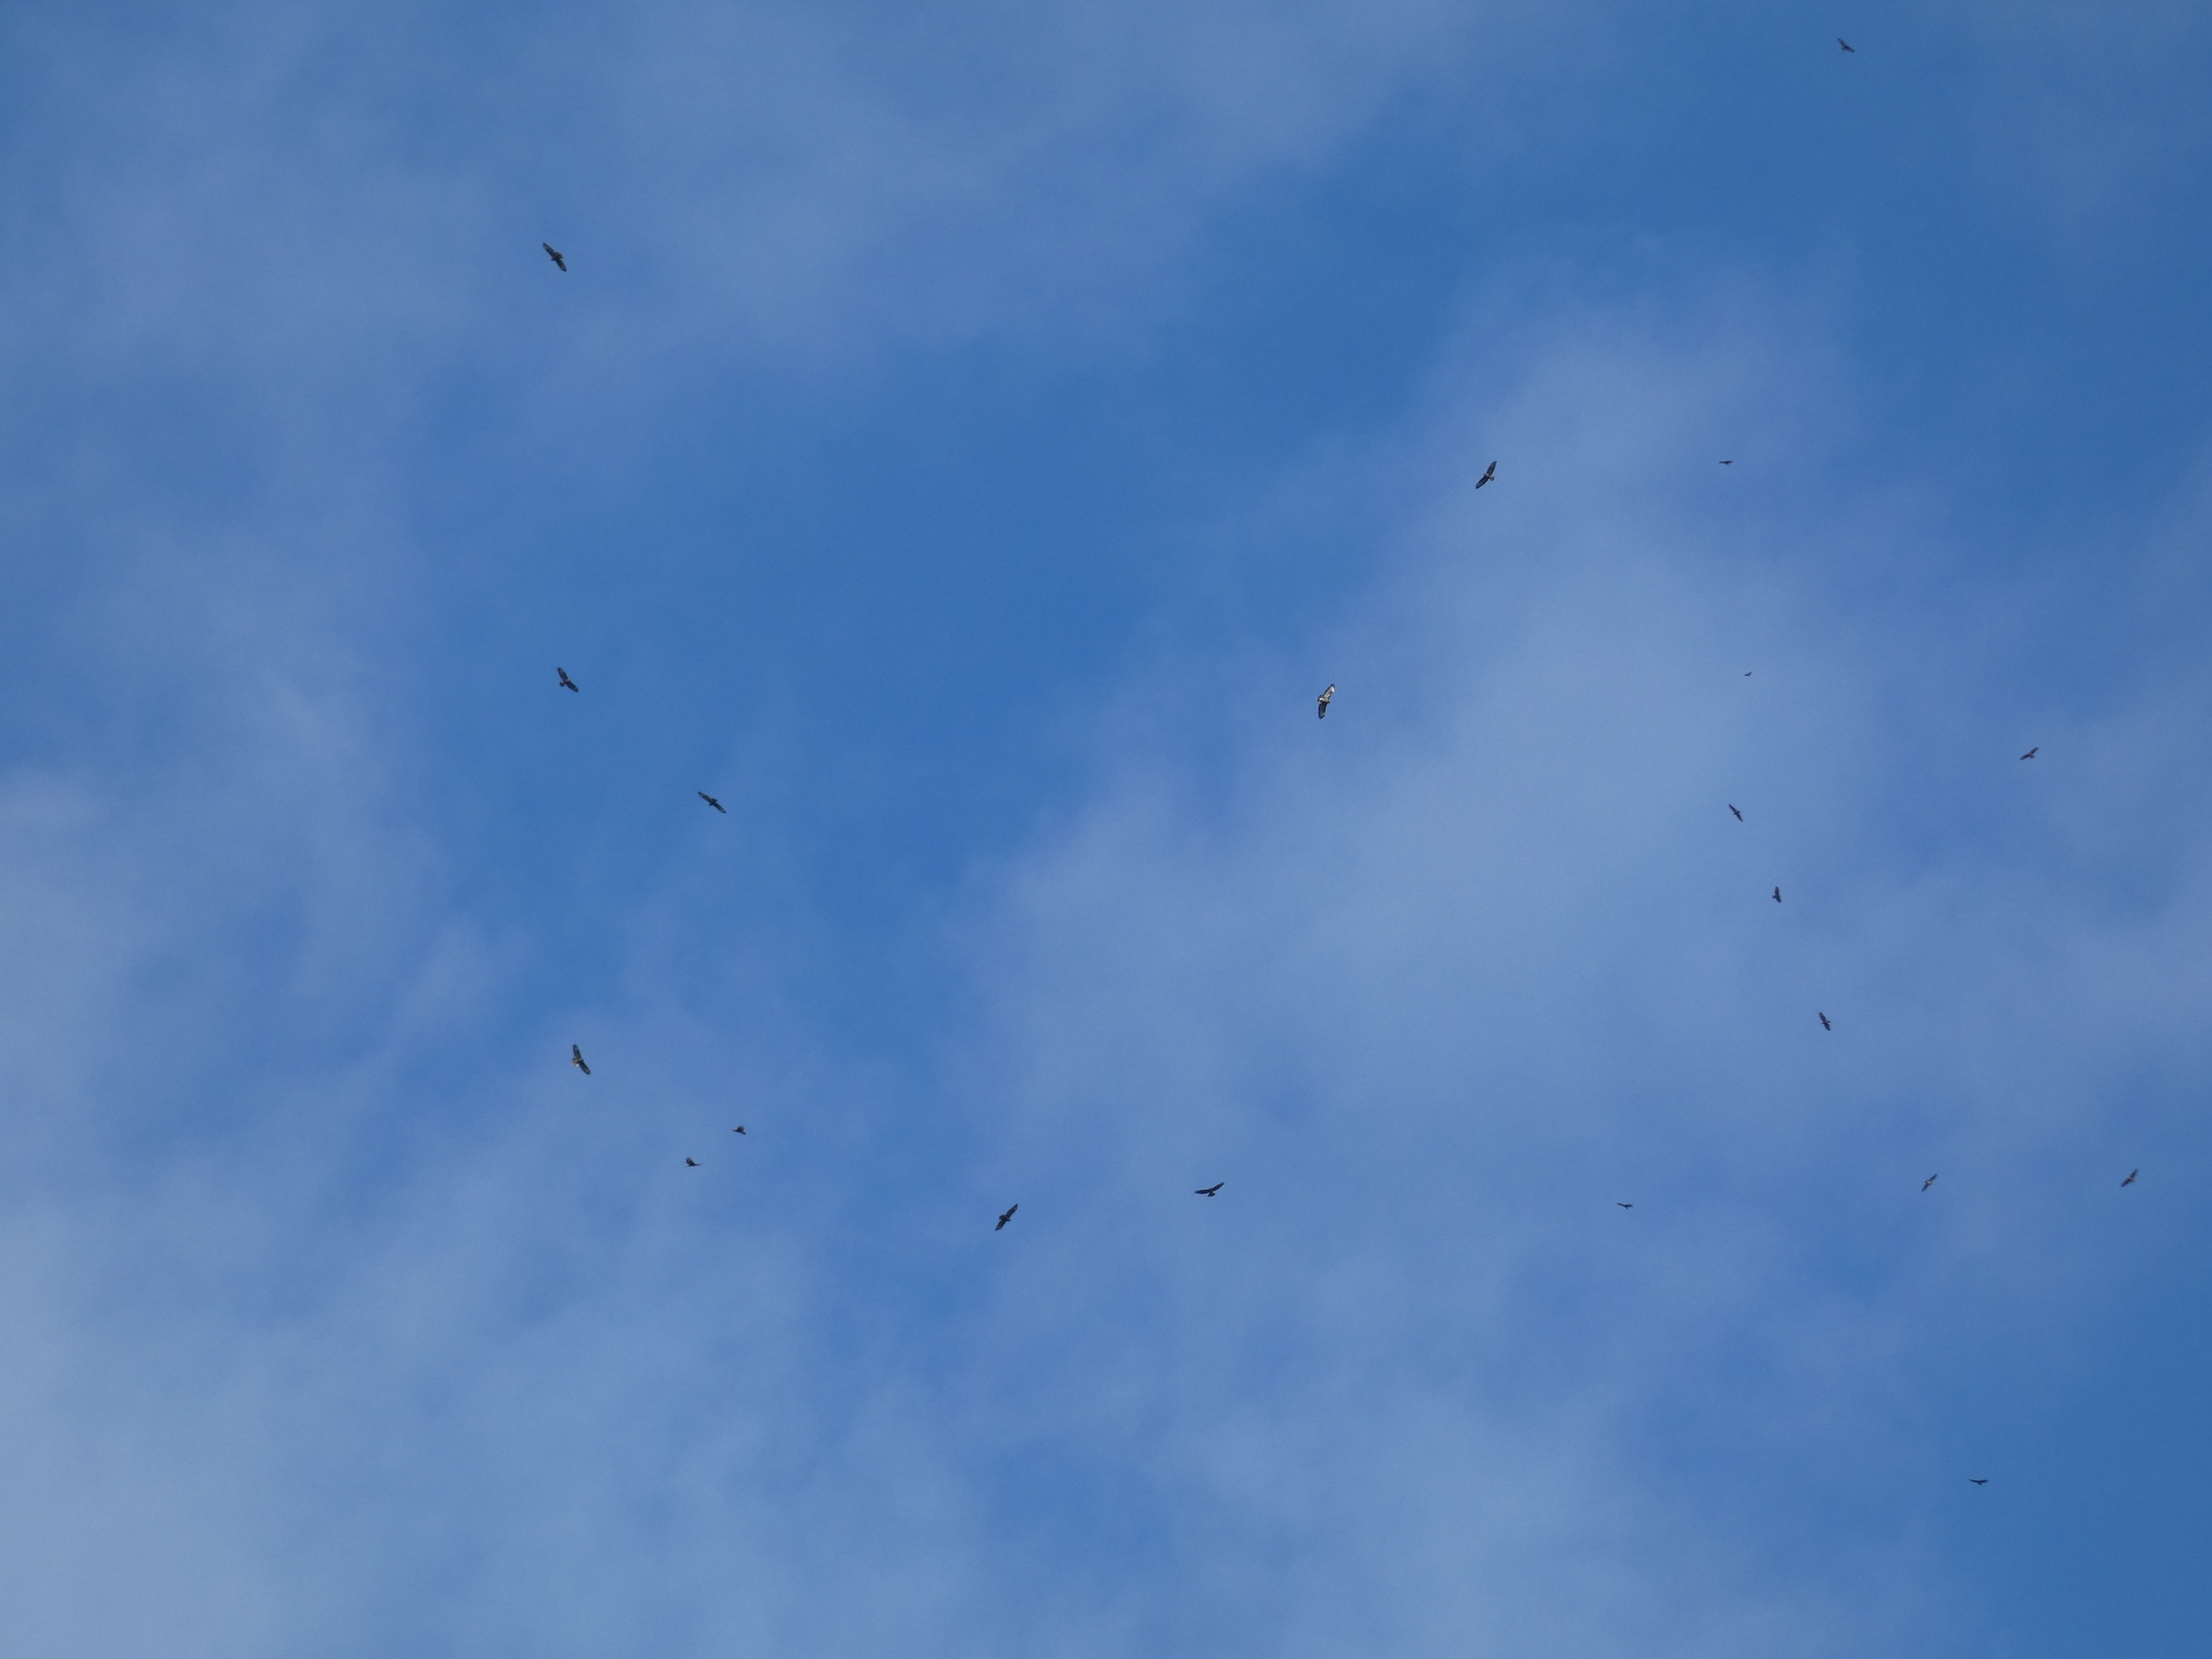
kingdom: Animalia
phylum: Chordata
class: Aves
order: Accipitriformes
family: Accipitridae
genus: Buteo
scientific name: Buteo buteo
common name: Musvåge
